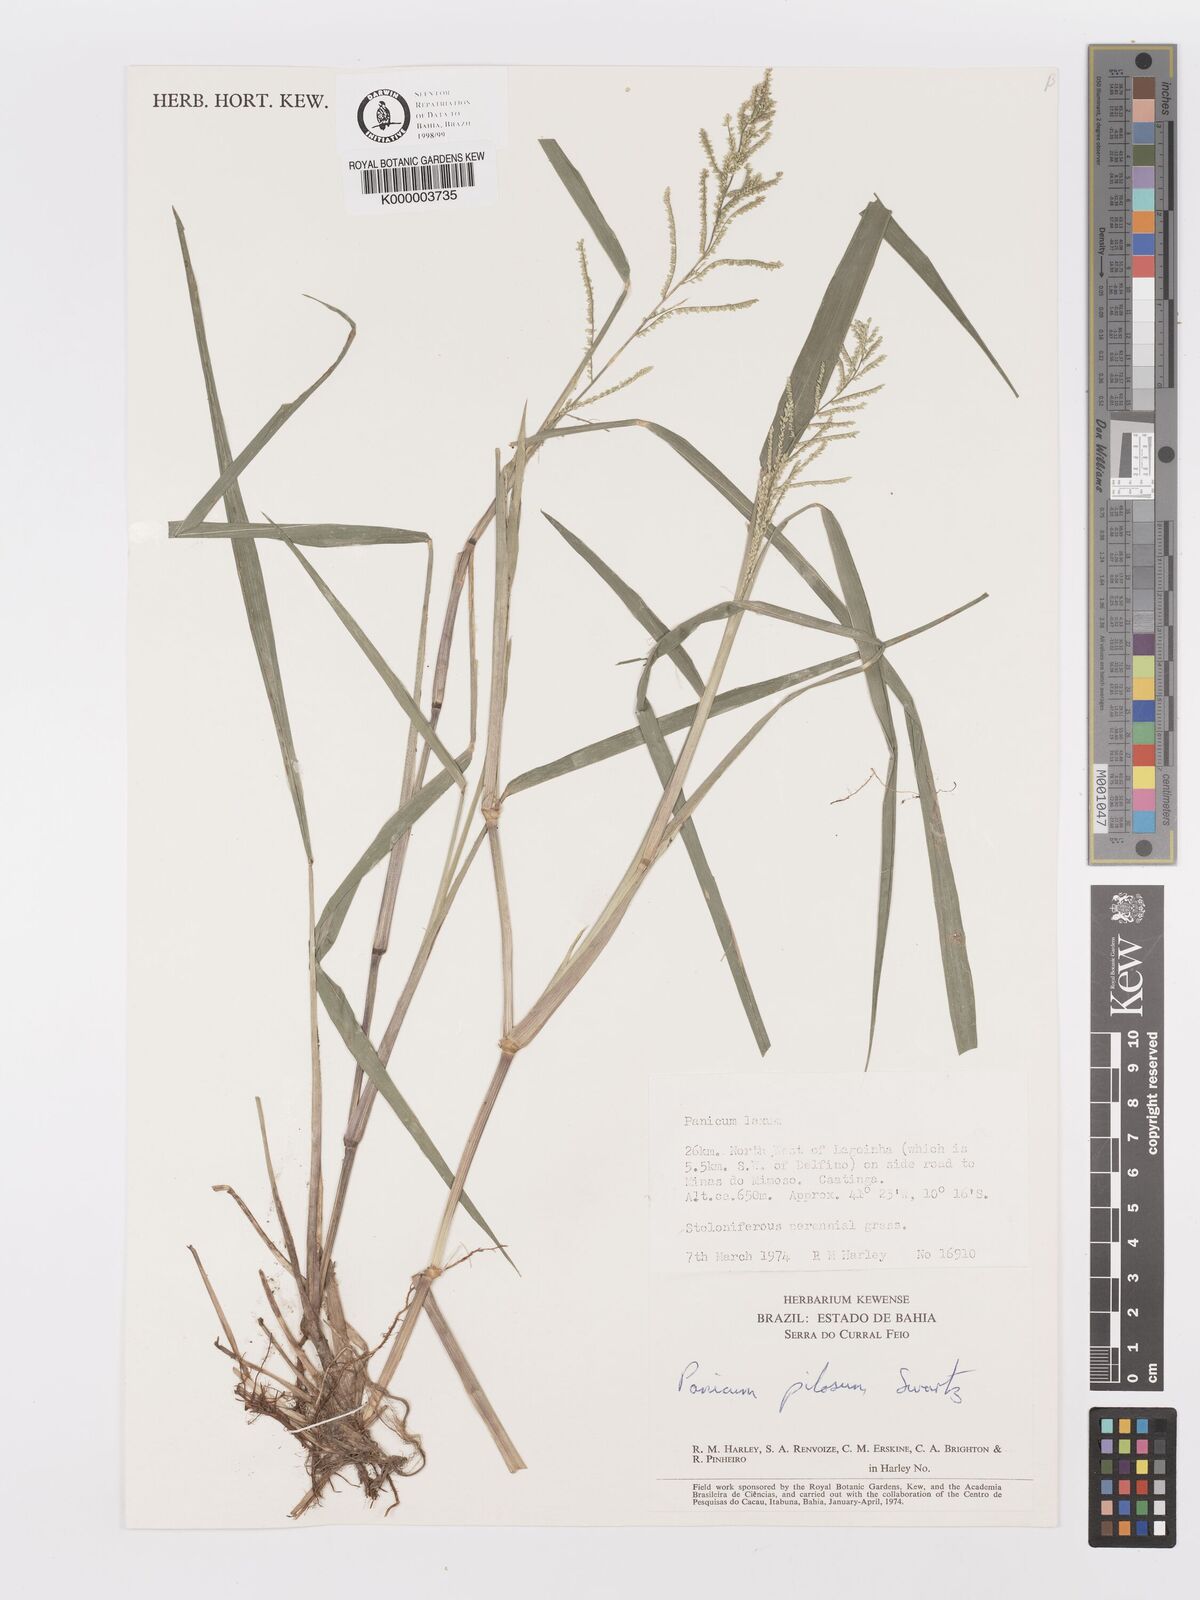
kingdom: Plantae
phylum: Tracheophyta
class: Liliopsida
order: Poales
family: Poaceae
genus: Rugoloa
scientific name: Rugoloa pilosa
